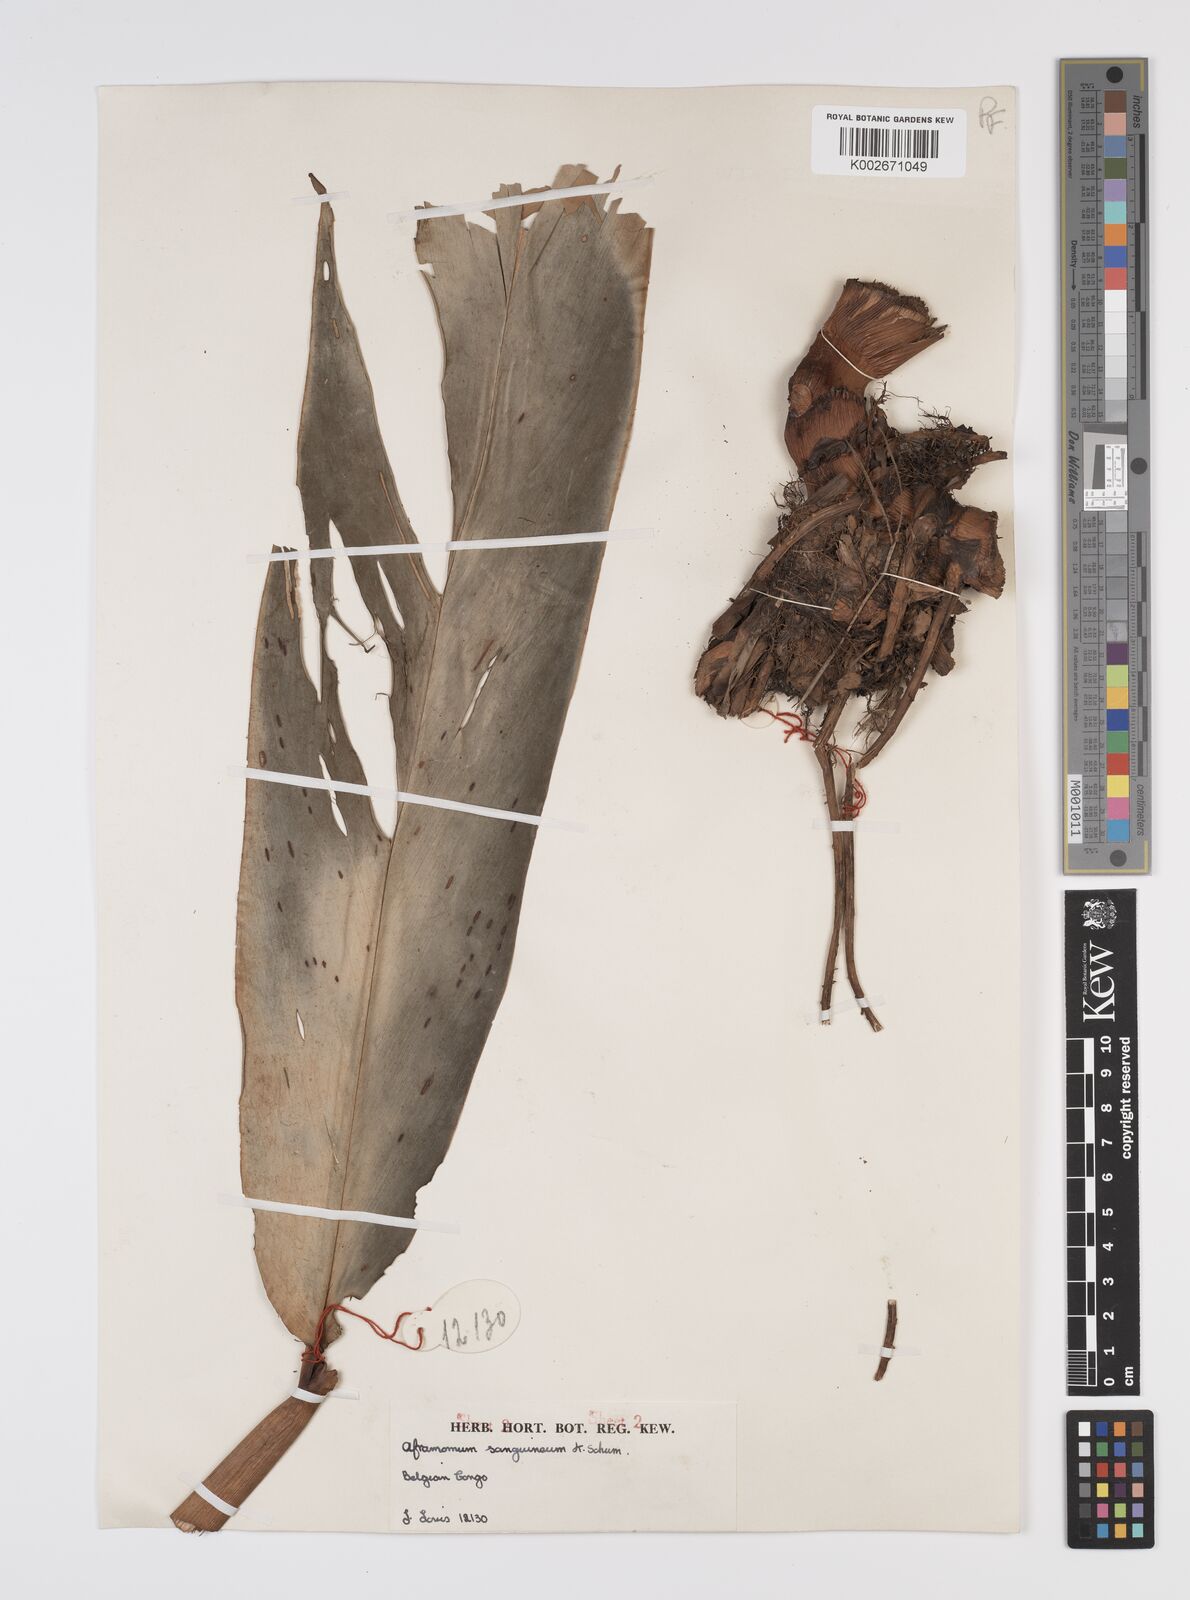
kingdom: Plantae
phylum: Tracheophyta
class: Liliopsida
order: Zingiberales
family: Zingiberaceae
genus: Aframomum
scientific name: Aframomum angustifolium
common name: Guinea grains
